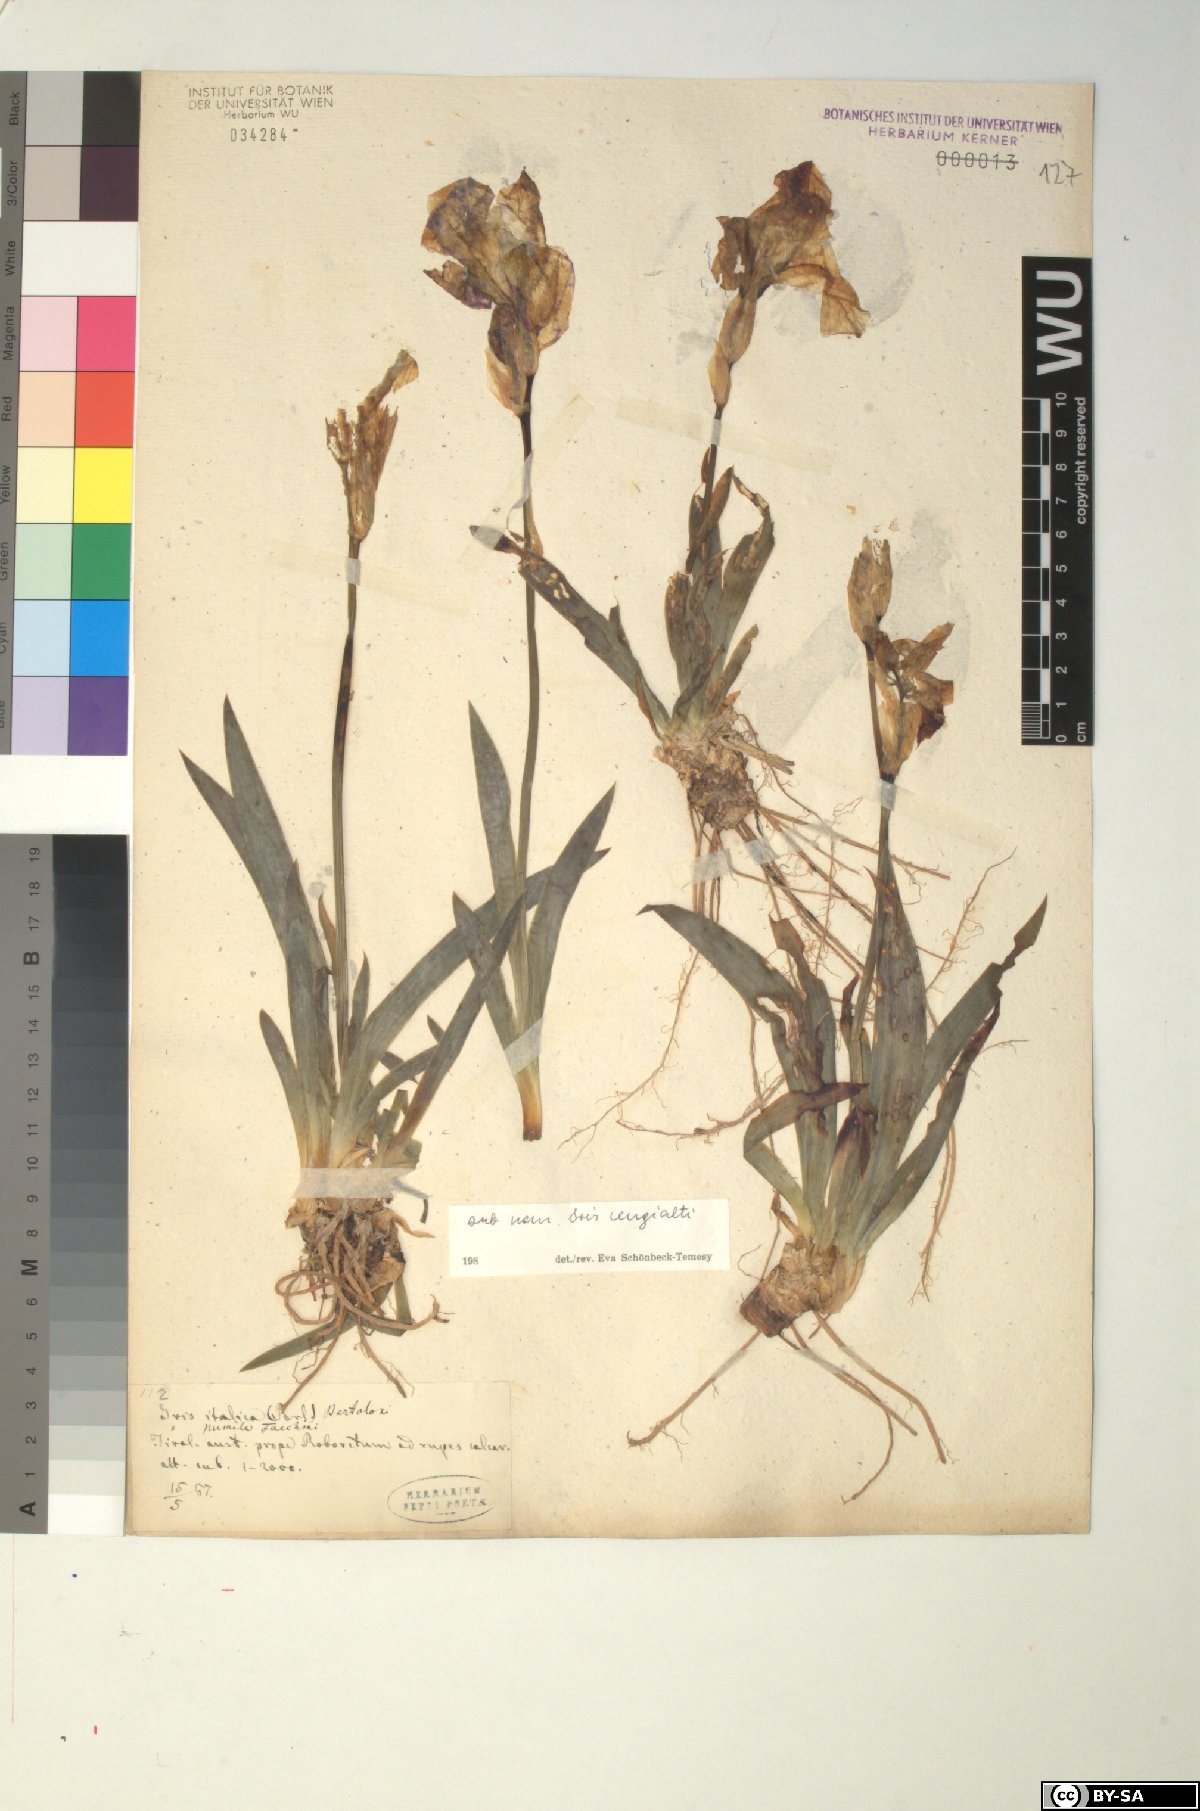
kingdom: Plantae
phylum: Tracheophyta
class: Liliopsida
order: Asparagales
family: Iridaceae
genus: Iris
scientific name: Iris pallida
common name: Sweet iris
